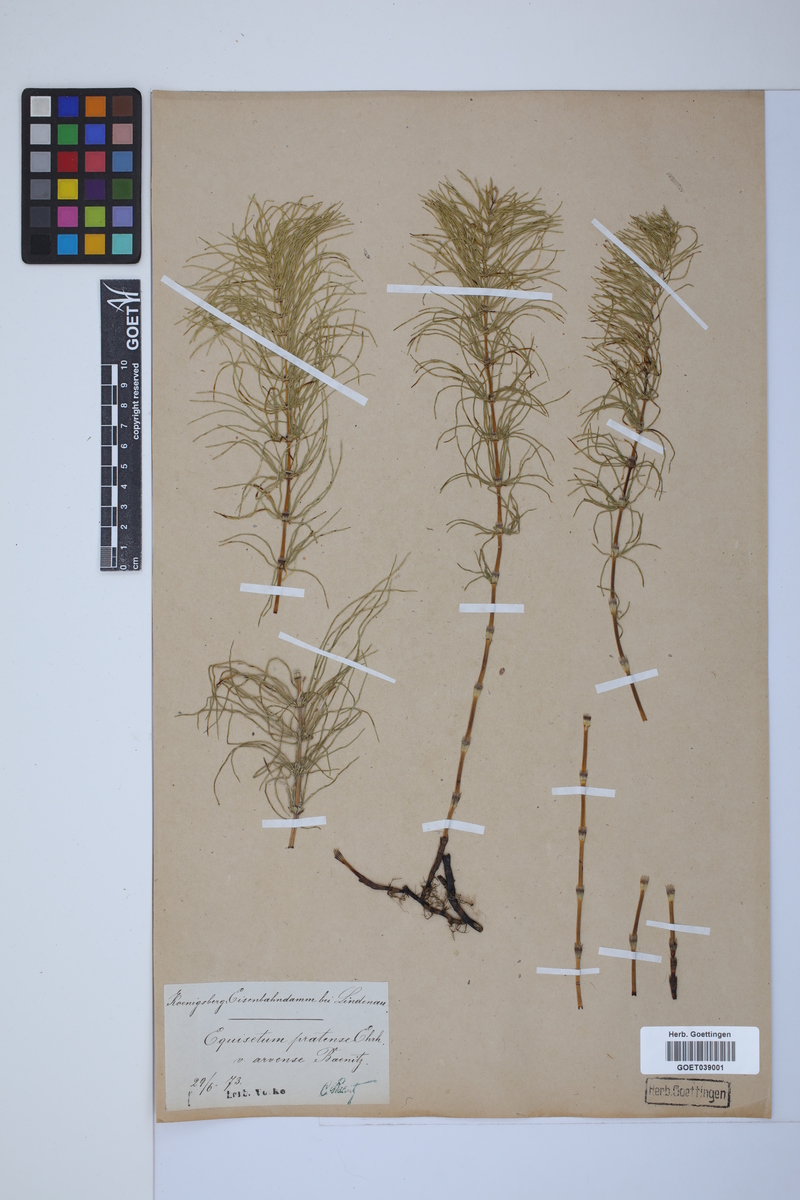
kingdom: Plantae
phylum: Tracheophyta
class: Polypodiopsida
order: Equisetales
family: Equisetaceae
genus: Equisetum
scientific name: Equisetum pratense
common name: Meadow horsetail
